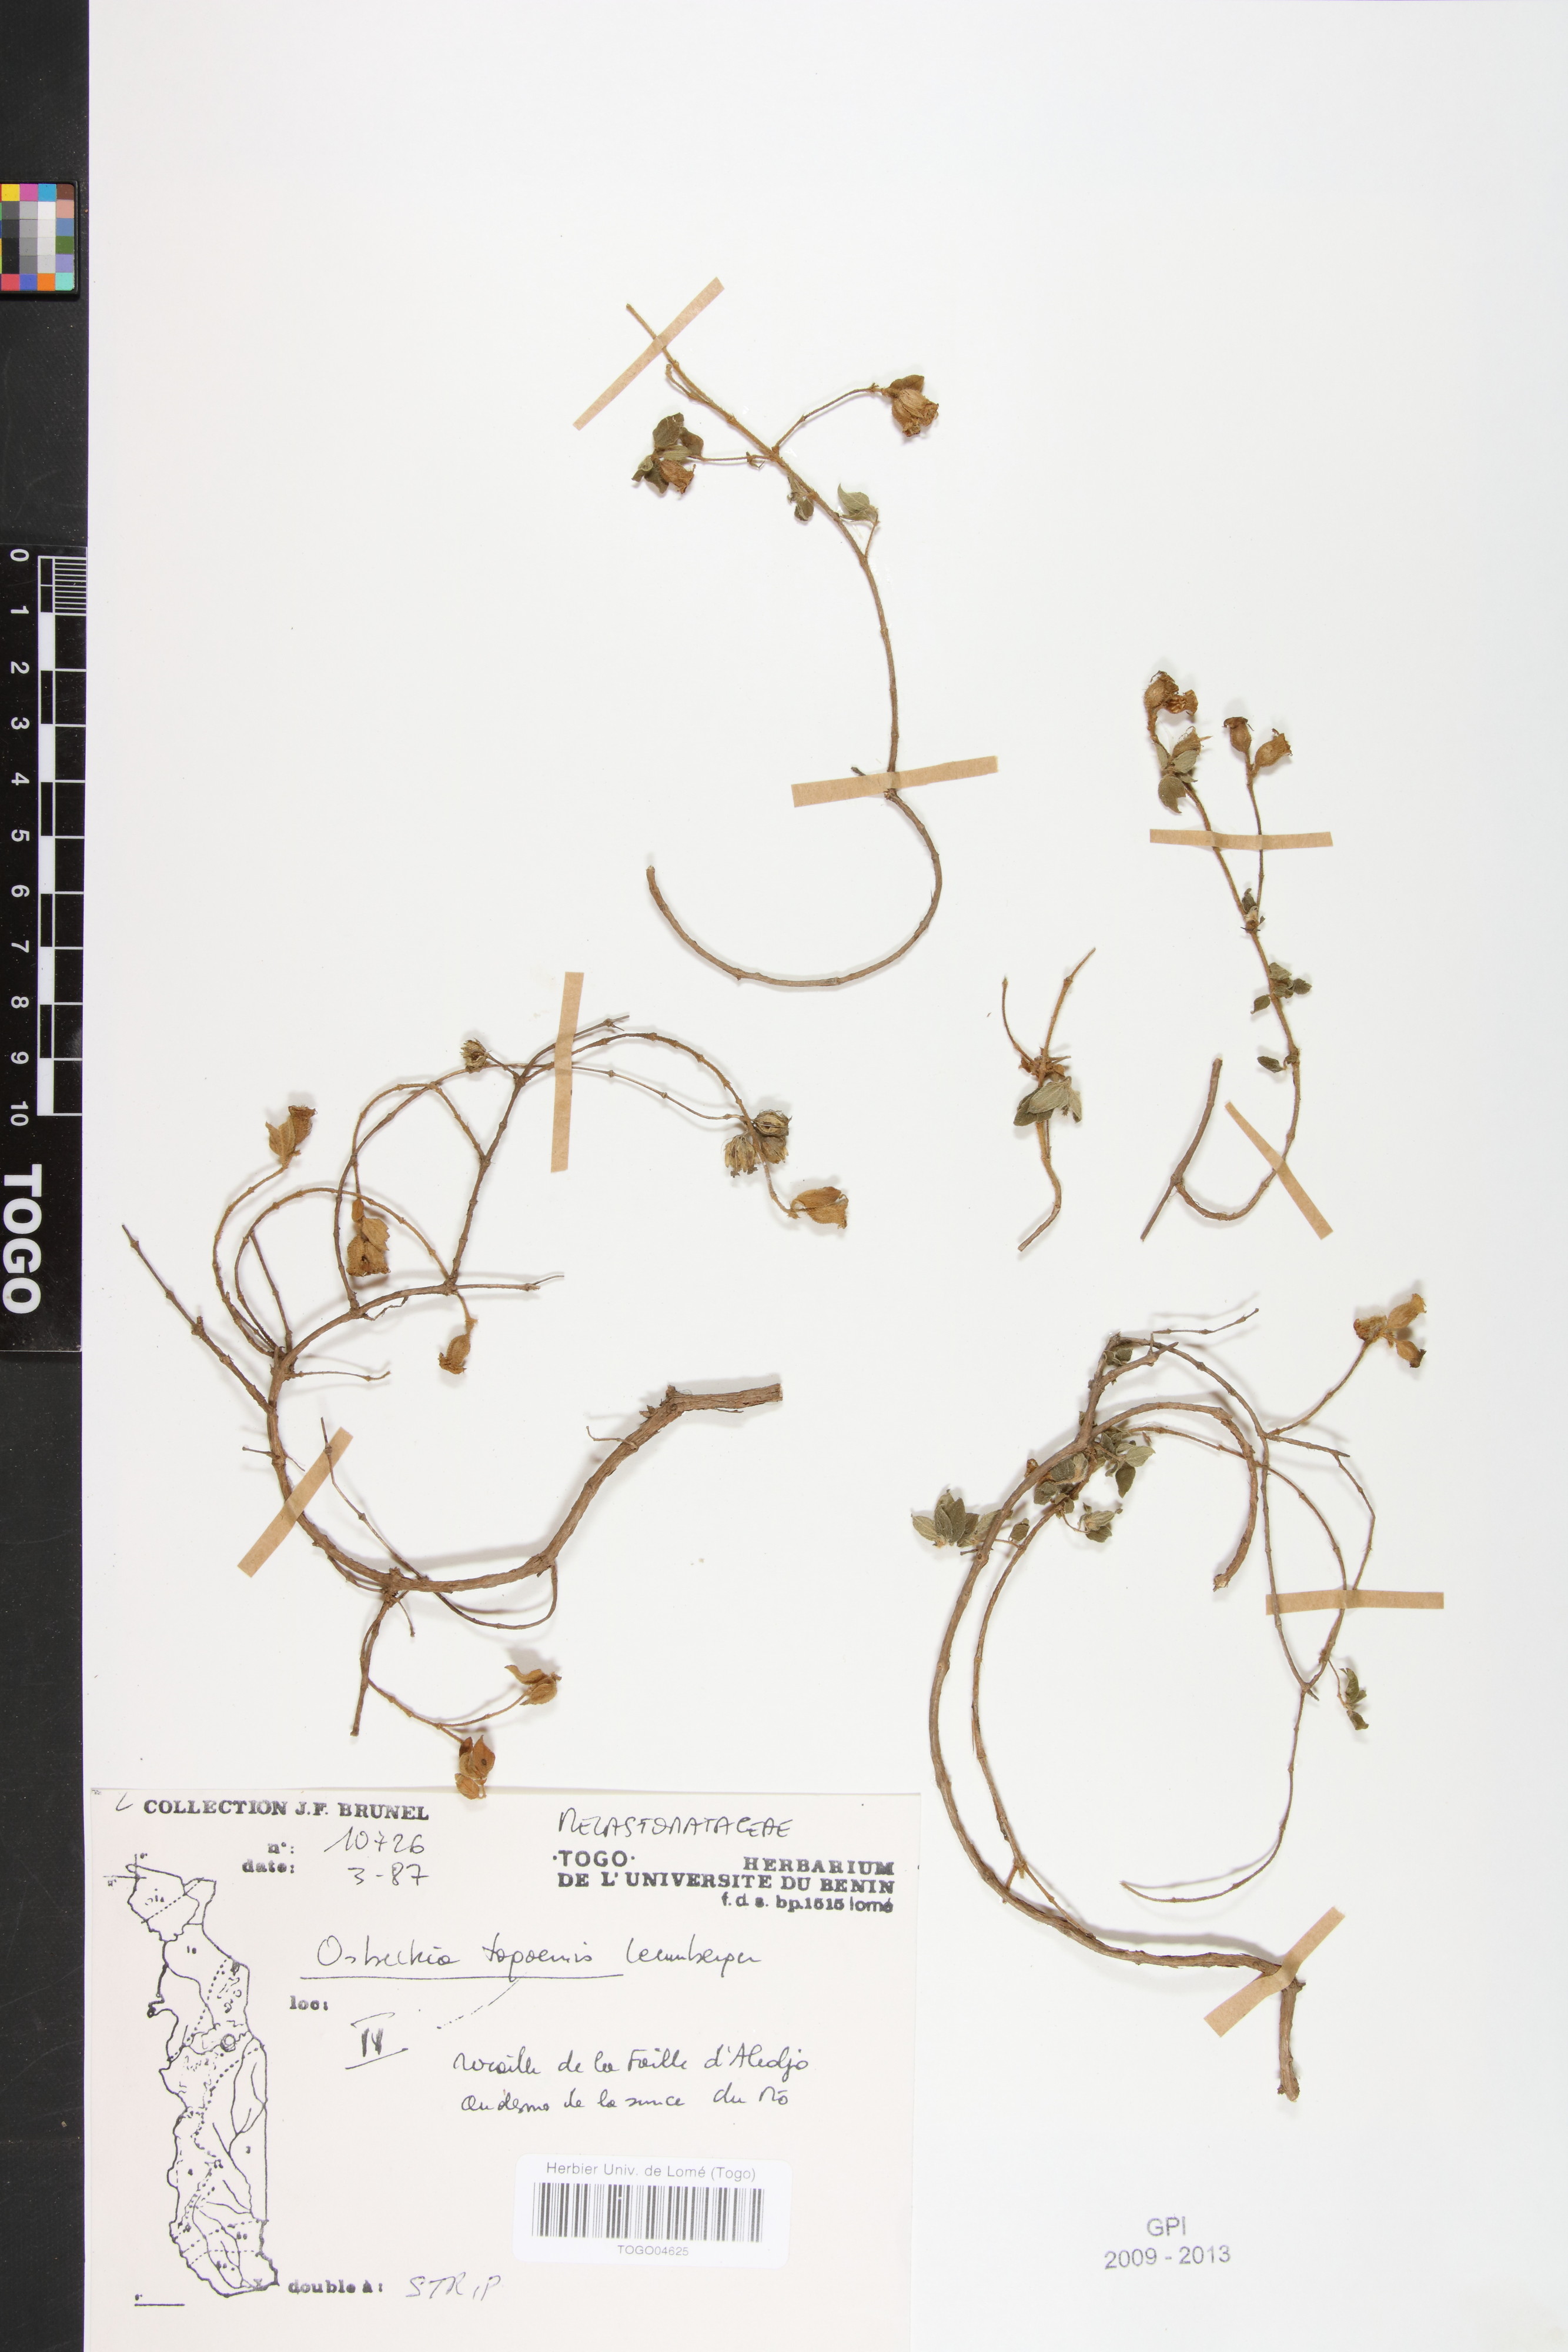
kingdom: Plantae
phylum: Tracheophyta
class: Magnoliopsida
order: Myrtales
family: Melastomataceae
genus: Nerophila
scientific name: Nerophila togoensis
